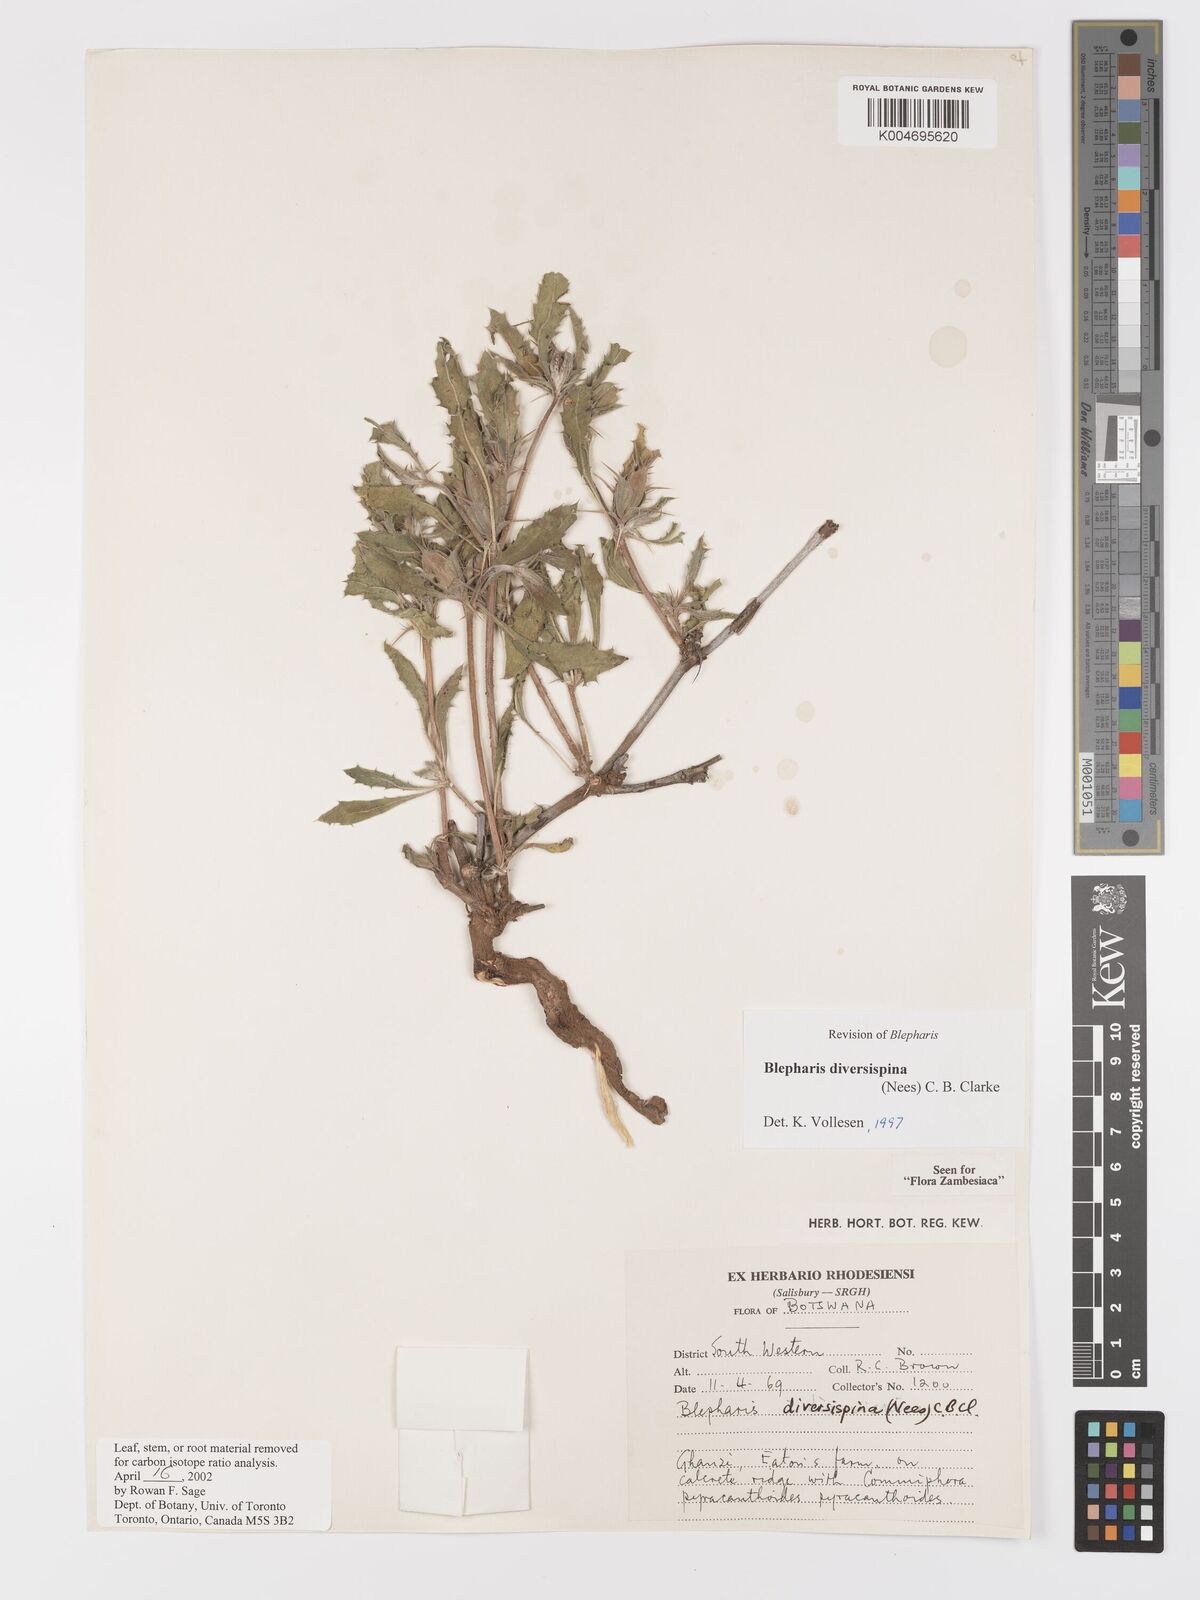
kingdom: Plantae
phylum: Tracheophyta
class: Magnoliopsida
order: Lamiales
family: Acanthaceae
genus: Blepharis
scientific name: Blepharis diversispina
